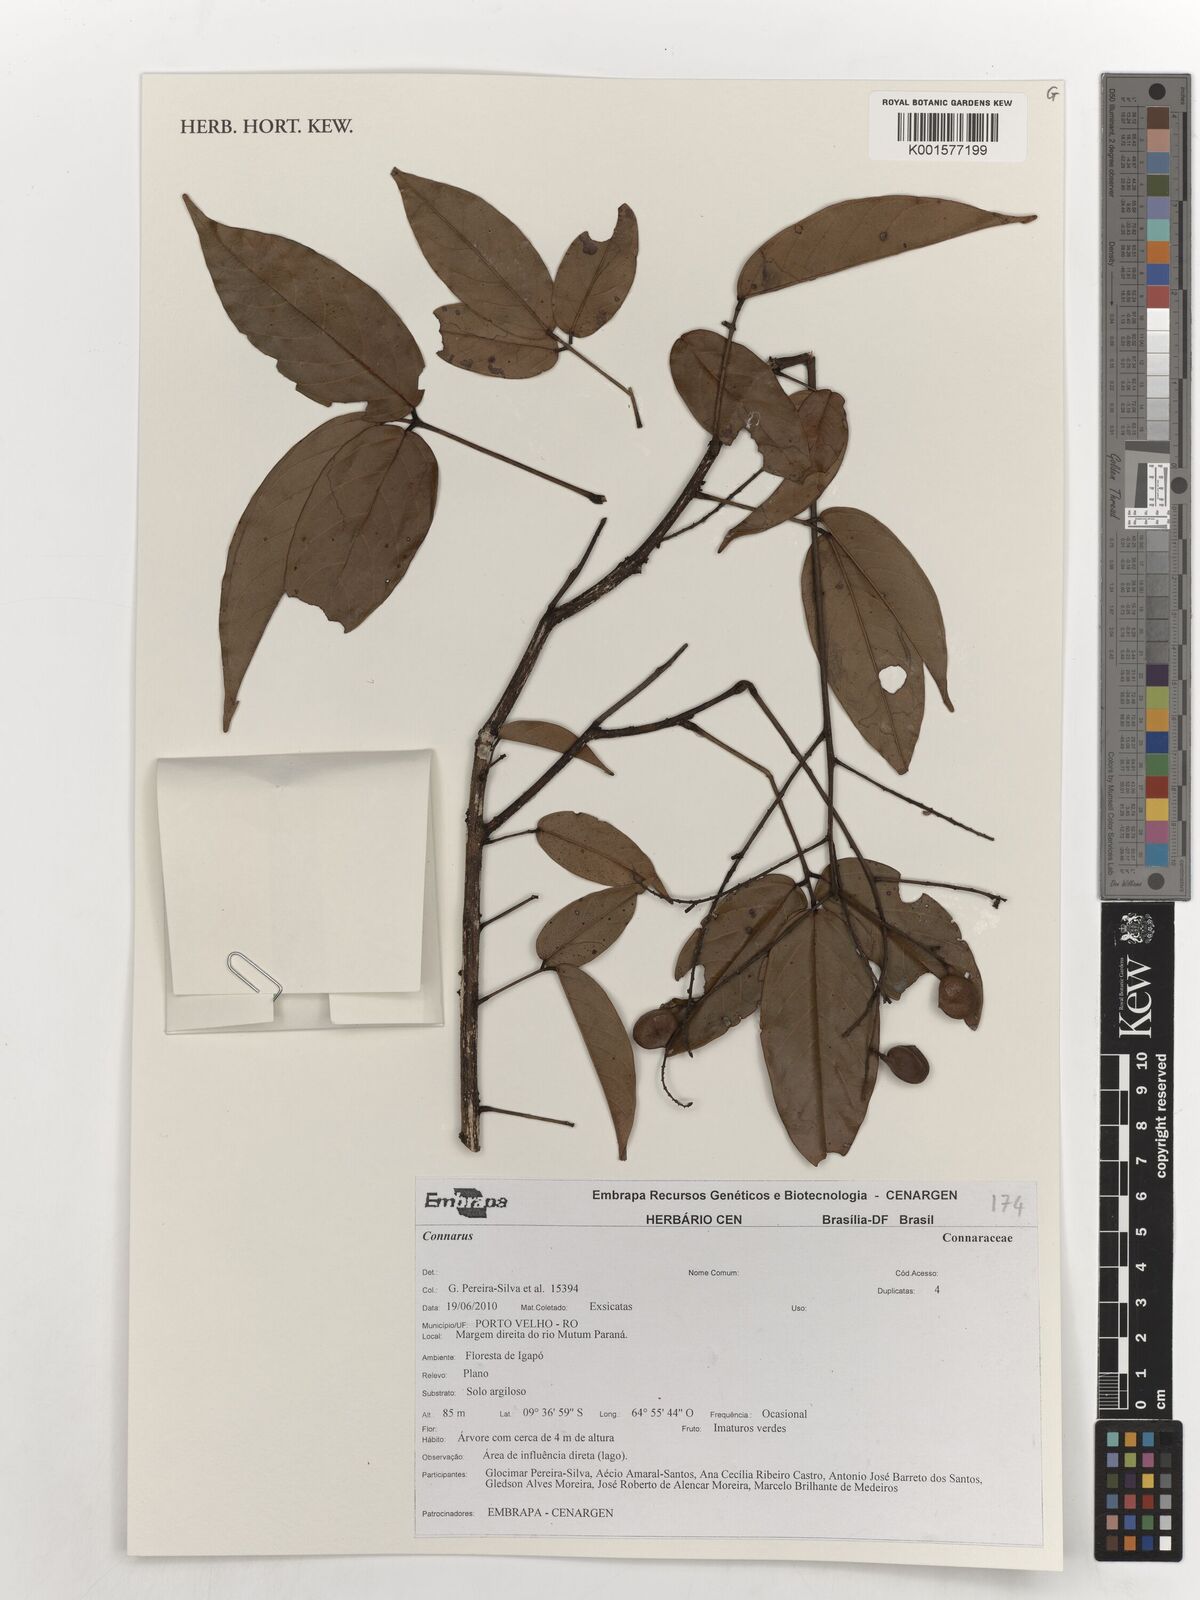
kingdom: Plantae
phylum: Tracheophyta
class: Magnoliopsida
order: Oxalidales
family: Connaraceae
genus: Connarus
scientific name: Connarus
